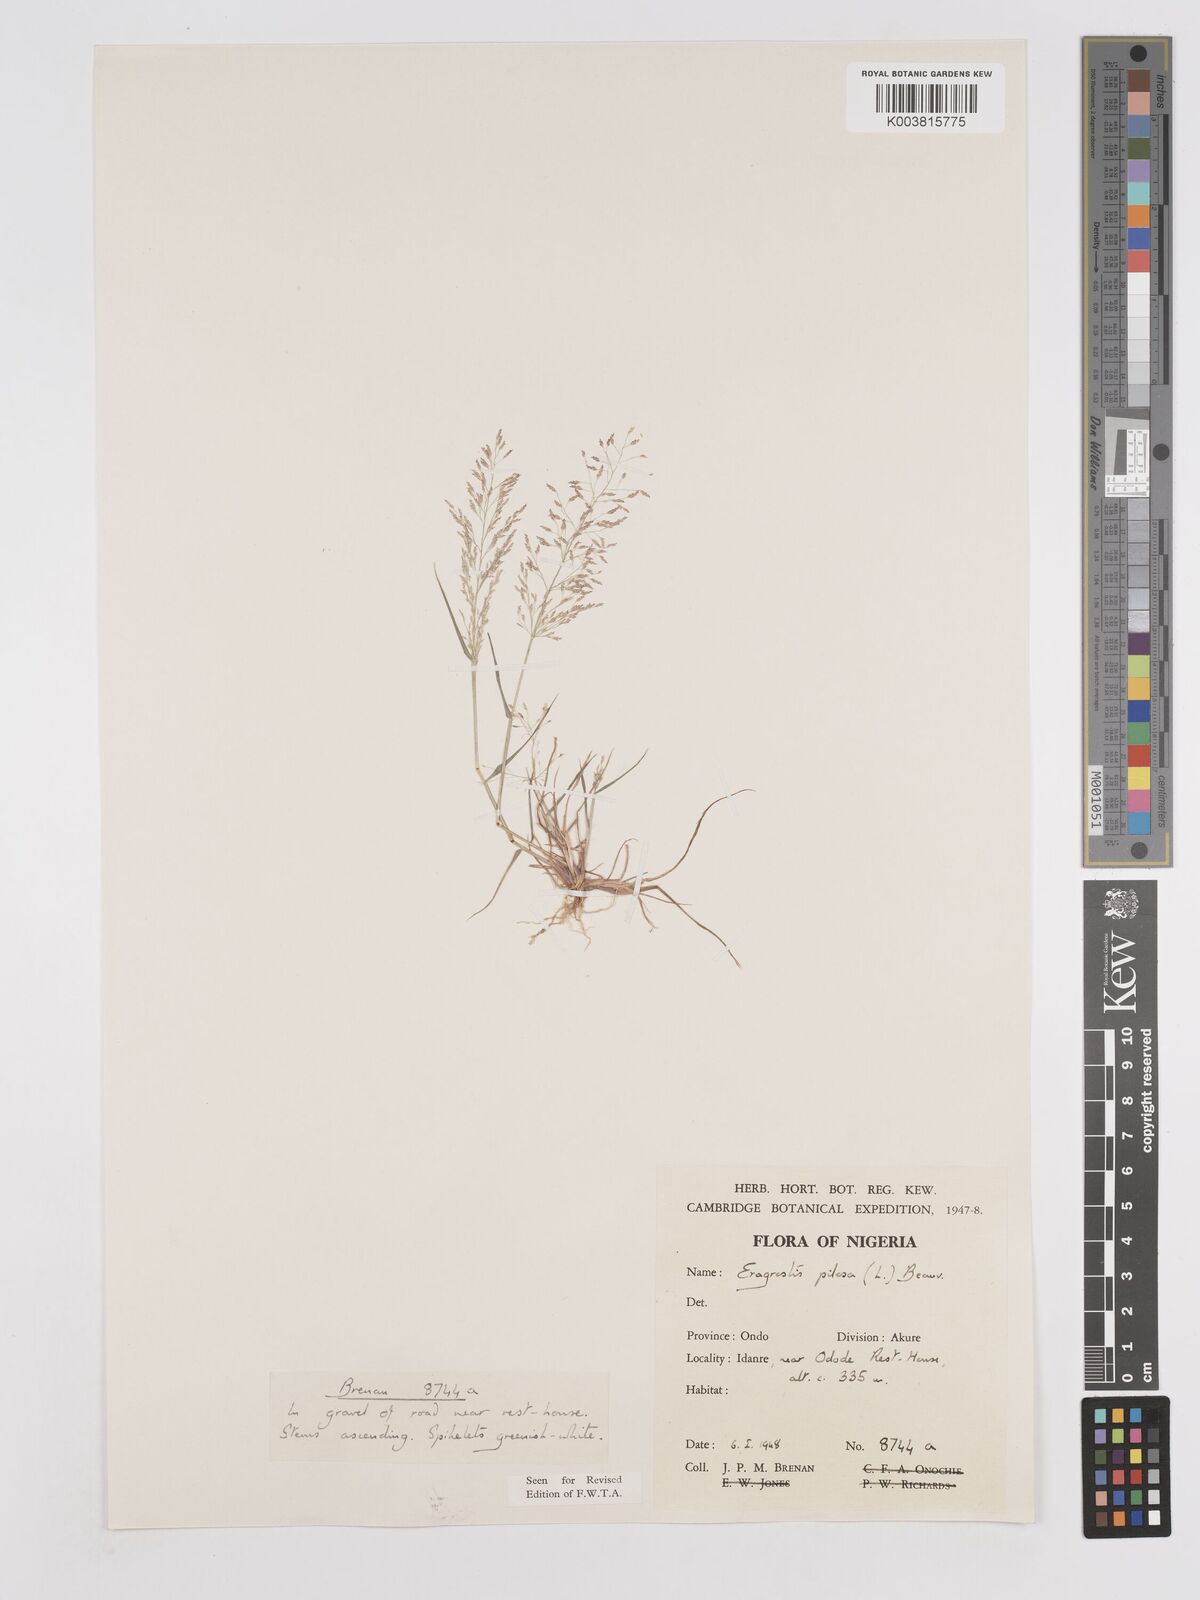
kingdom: Plantae
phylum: Tracheophyta
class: Liliopsida
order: Poales
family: Poaceae
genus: Eragrostis
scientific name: Eragrostis pilosa
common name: Indian lovegrass
